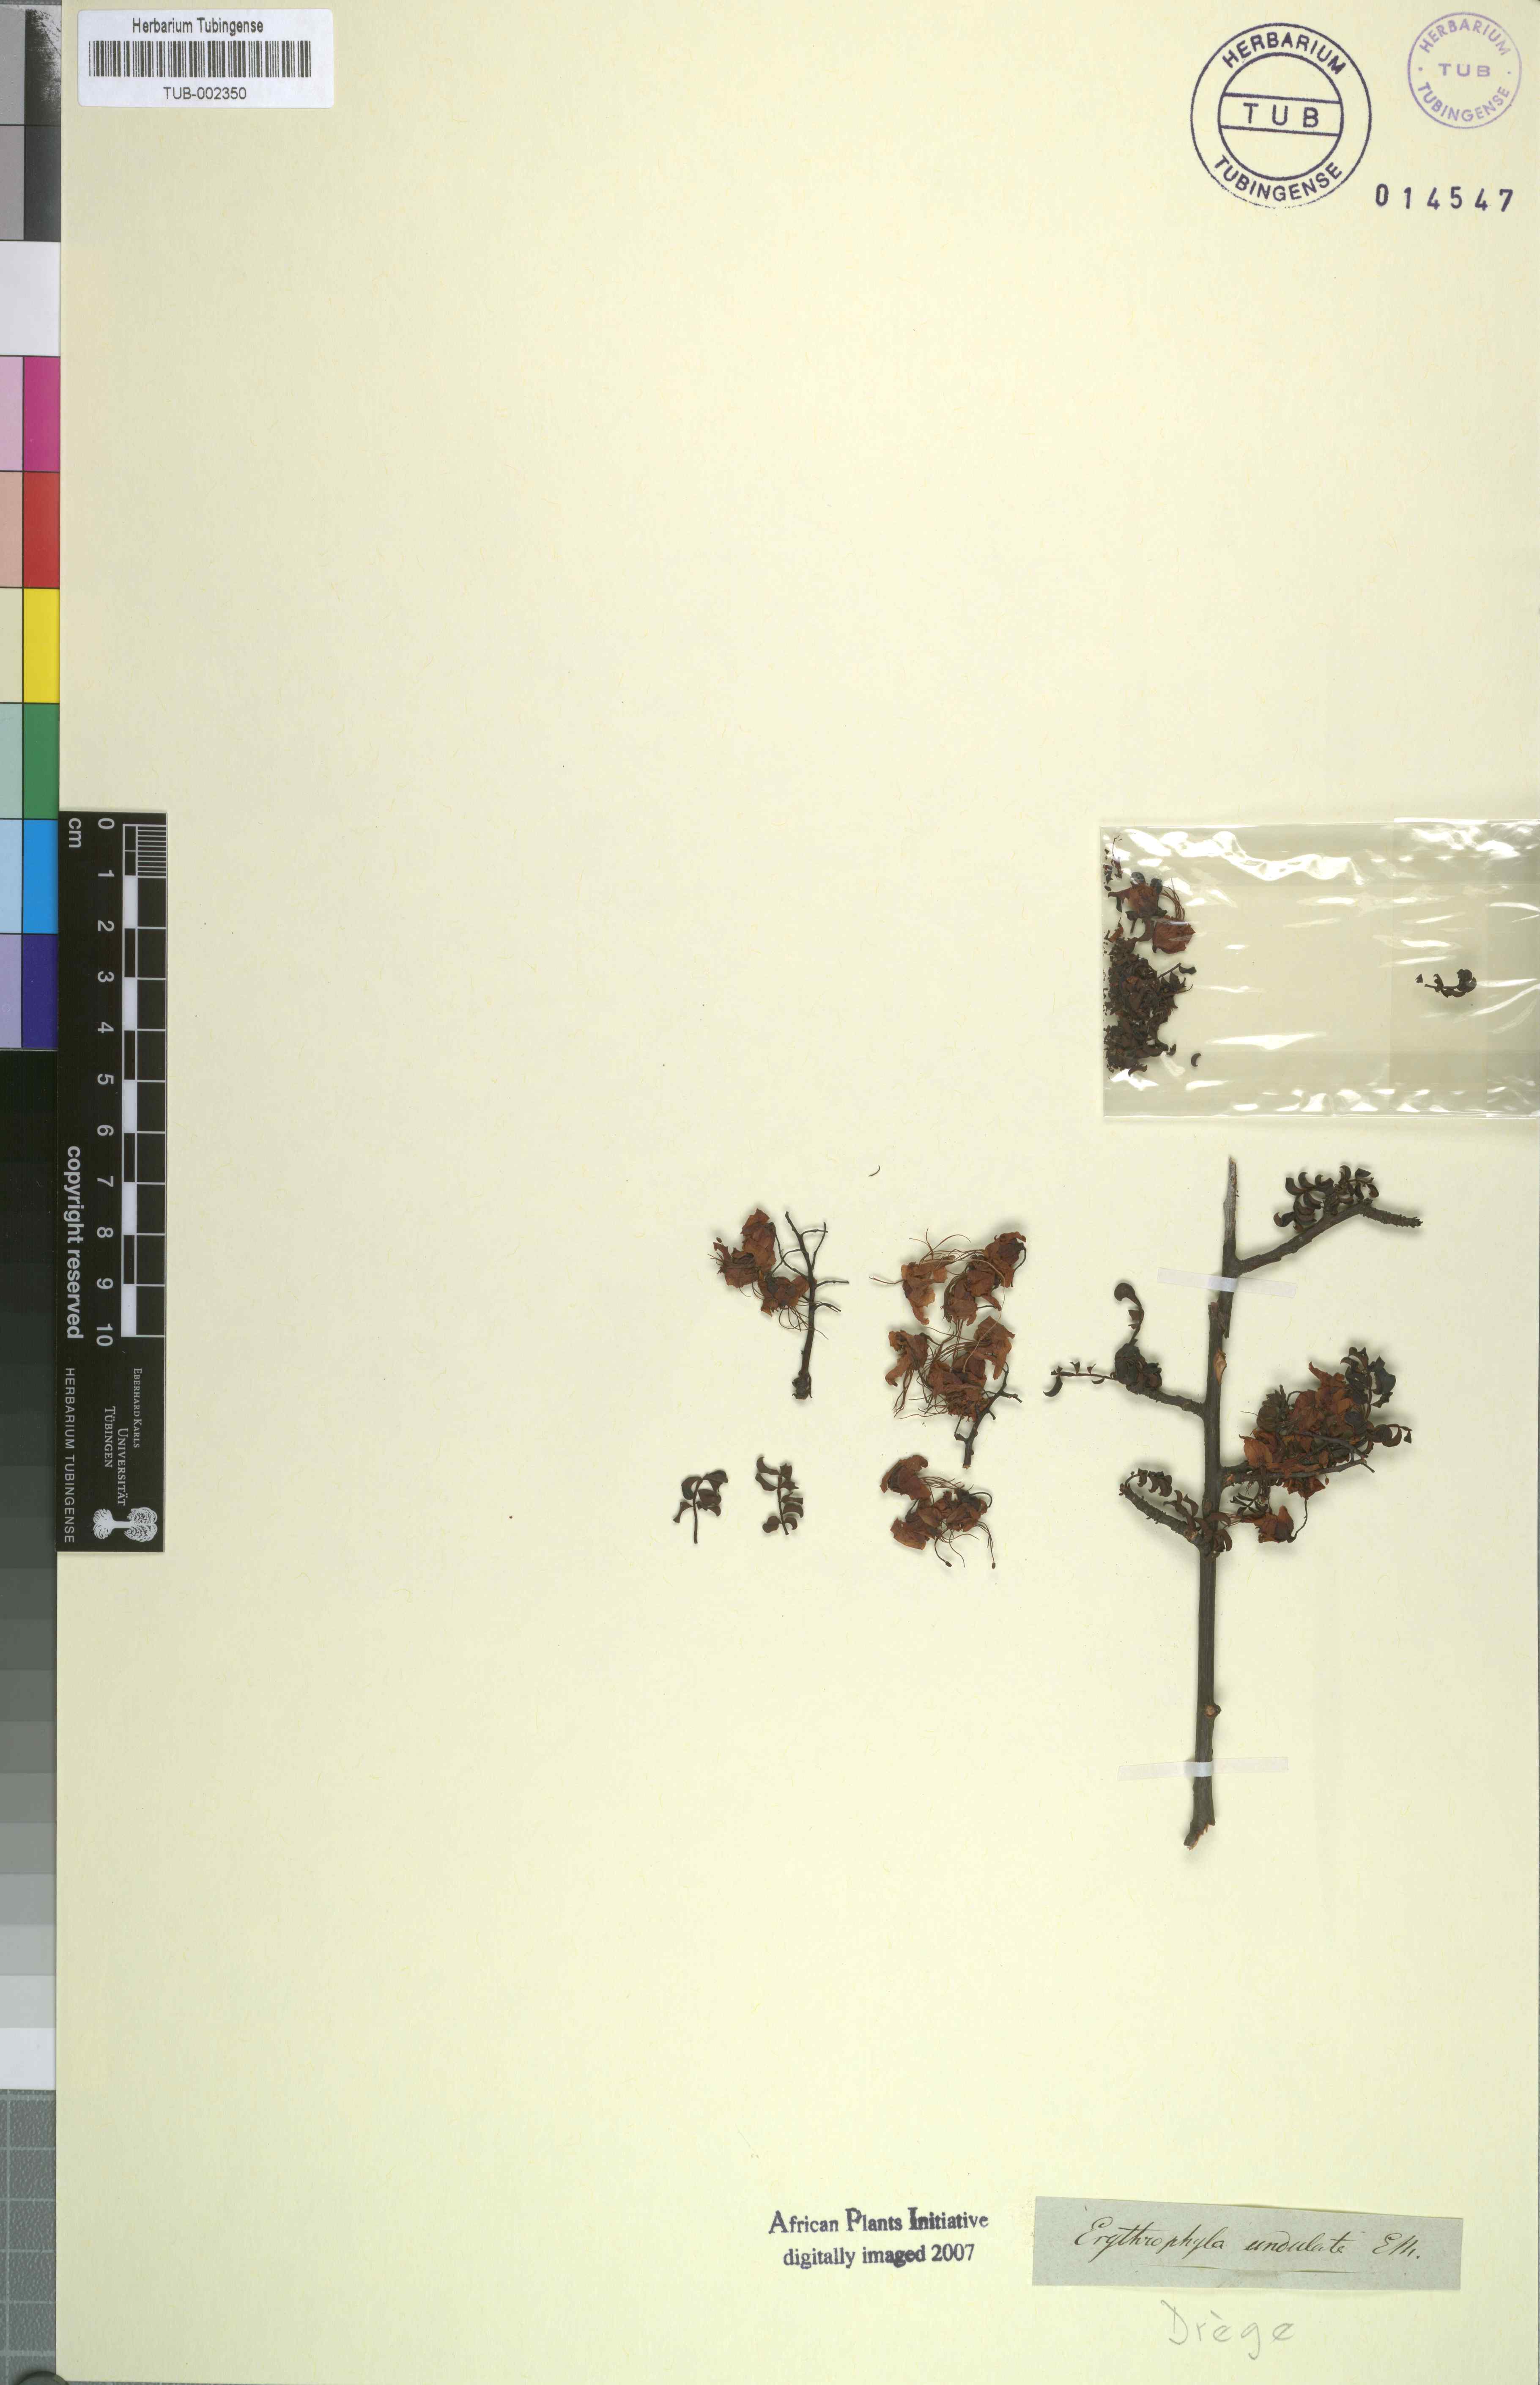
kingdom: Plantae
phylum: Tracheophyta
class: Magnoliopsida
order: Sapindales
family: Sapindaceae
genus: Erythrophysa
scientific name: Erythrophysa alata
